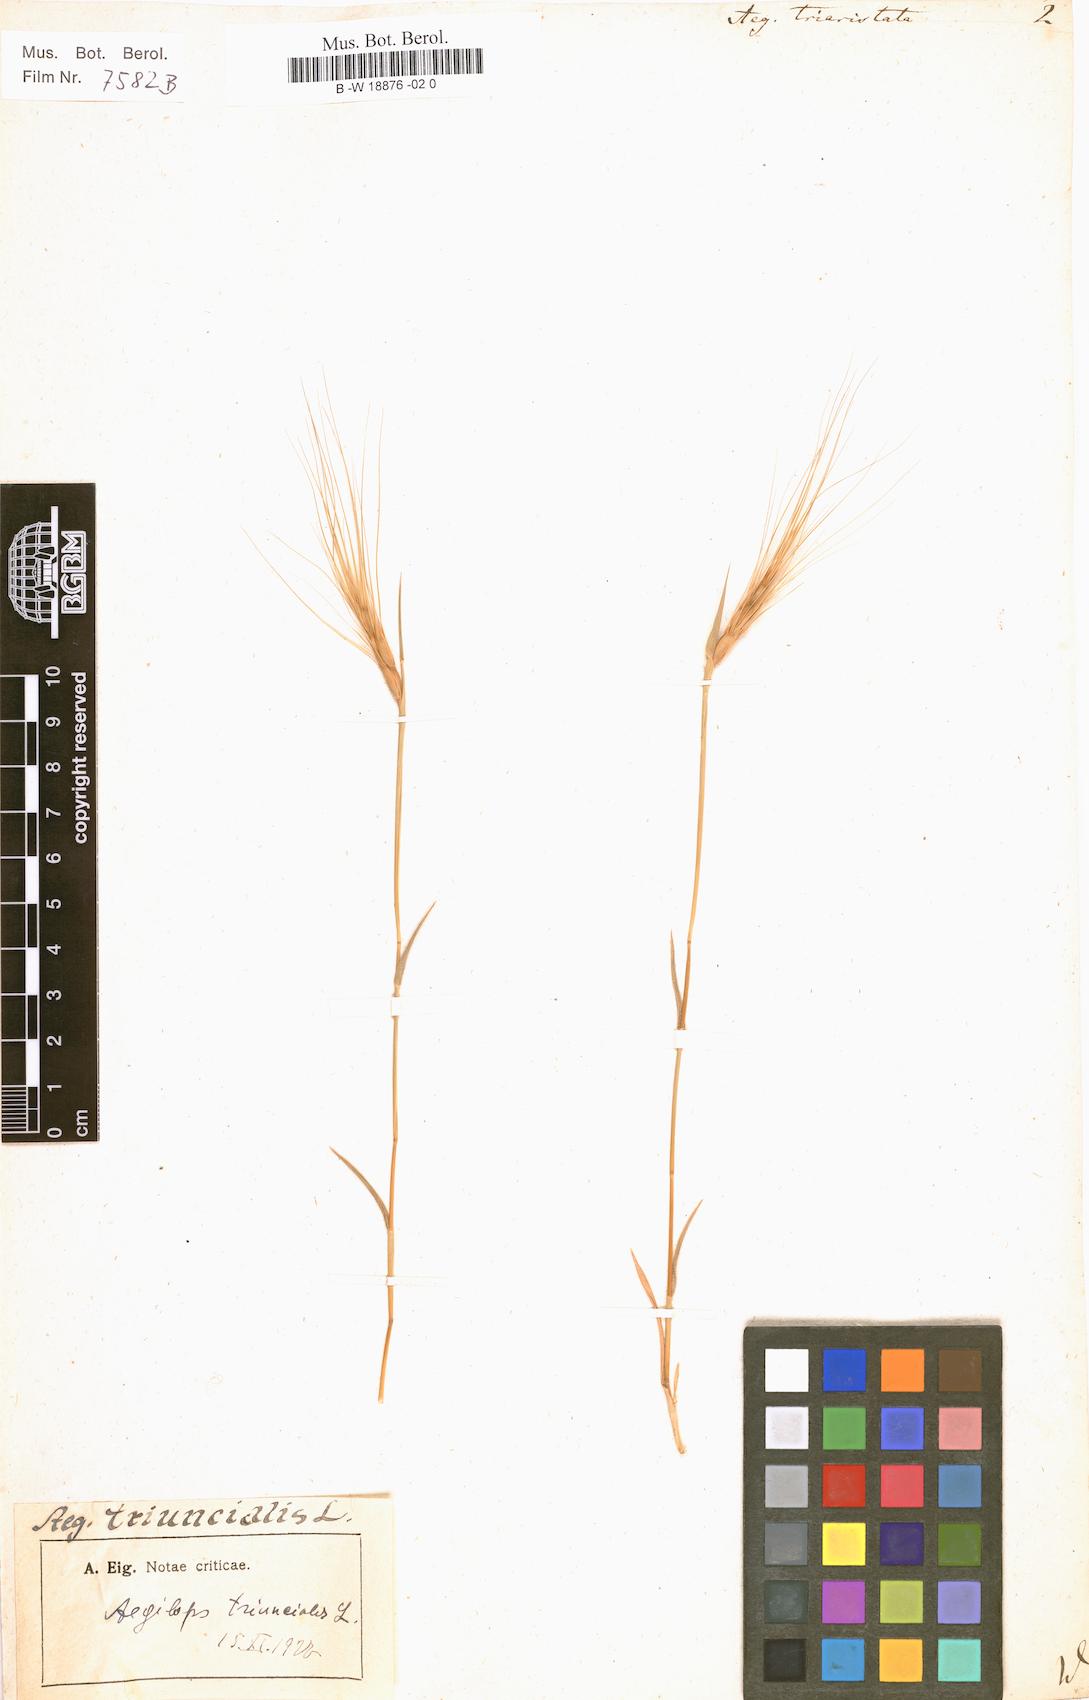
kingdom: Plantae
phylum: Tracheophyta
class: Liliopsida
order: Poales
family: Poaceae
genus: Aegilops
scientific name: Aegilops neglecta
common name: Three-awn goat grass
